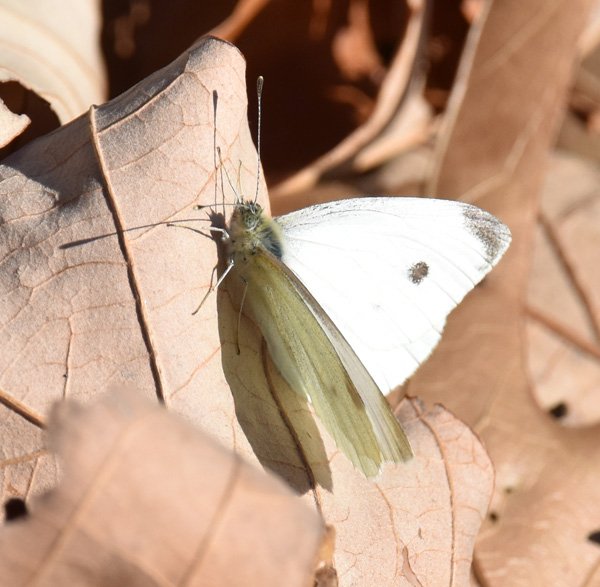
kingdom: Animalia
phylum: Arthropoda
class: Insecta
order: Lepidoptera
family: Pieridae
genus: Pieris
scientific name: Pieris rapae
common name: Cabbage White
